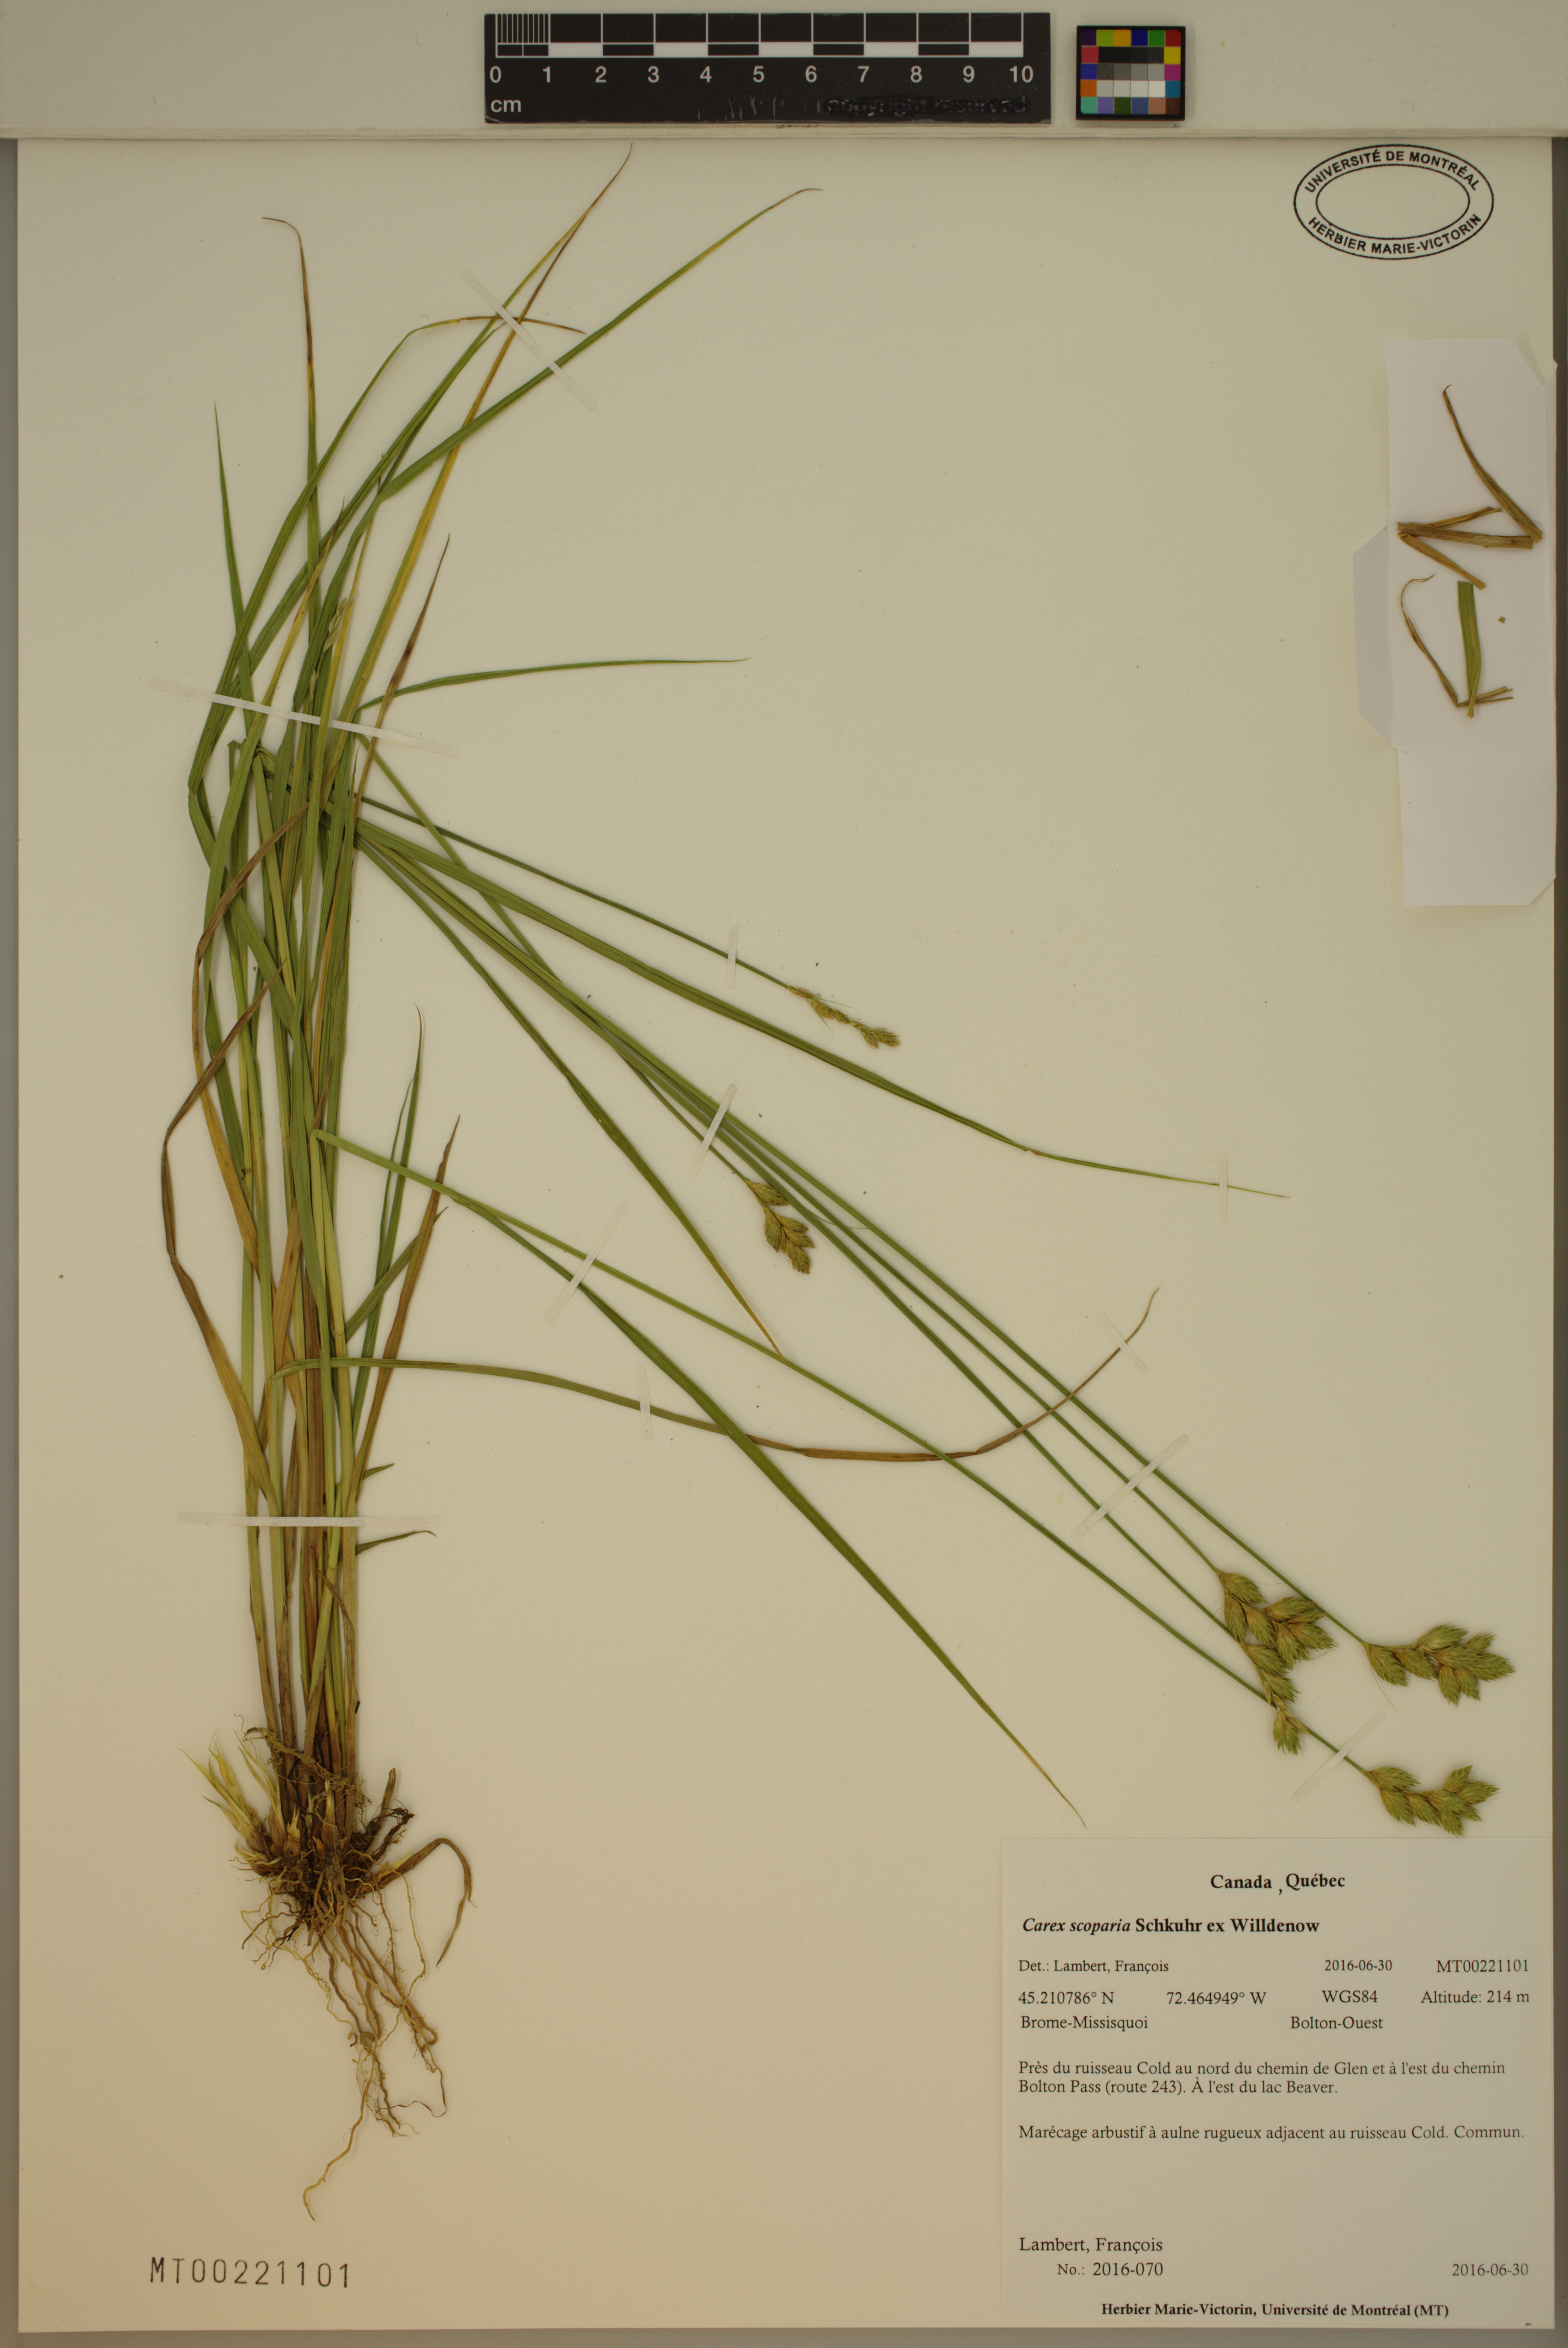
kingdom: Plantae
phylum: Tracheophyta
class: Liliopsida
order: Poales
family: Cyperaceae
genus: Carex
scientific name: Carex scoparia
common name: Broom sedge
